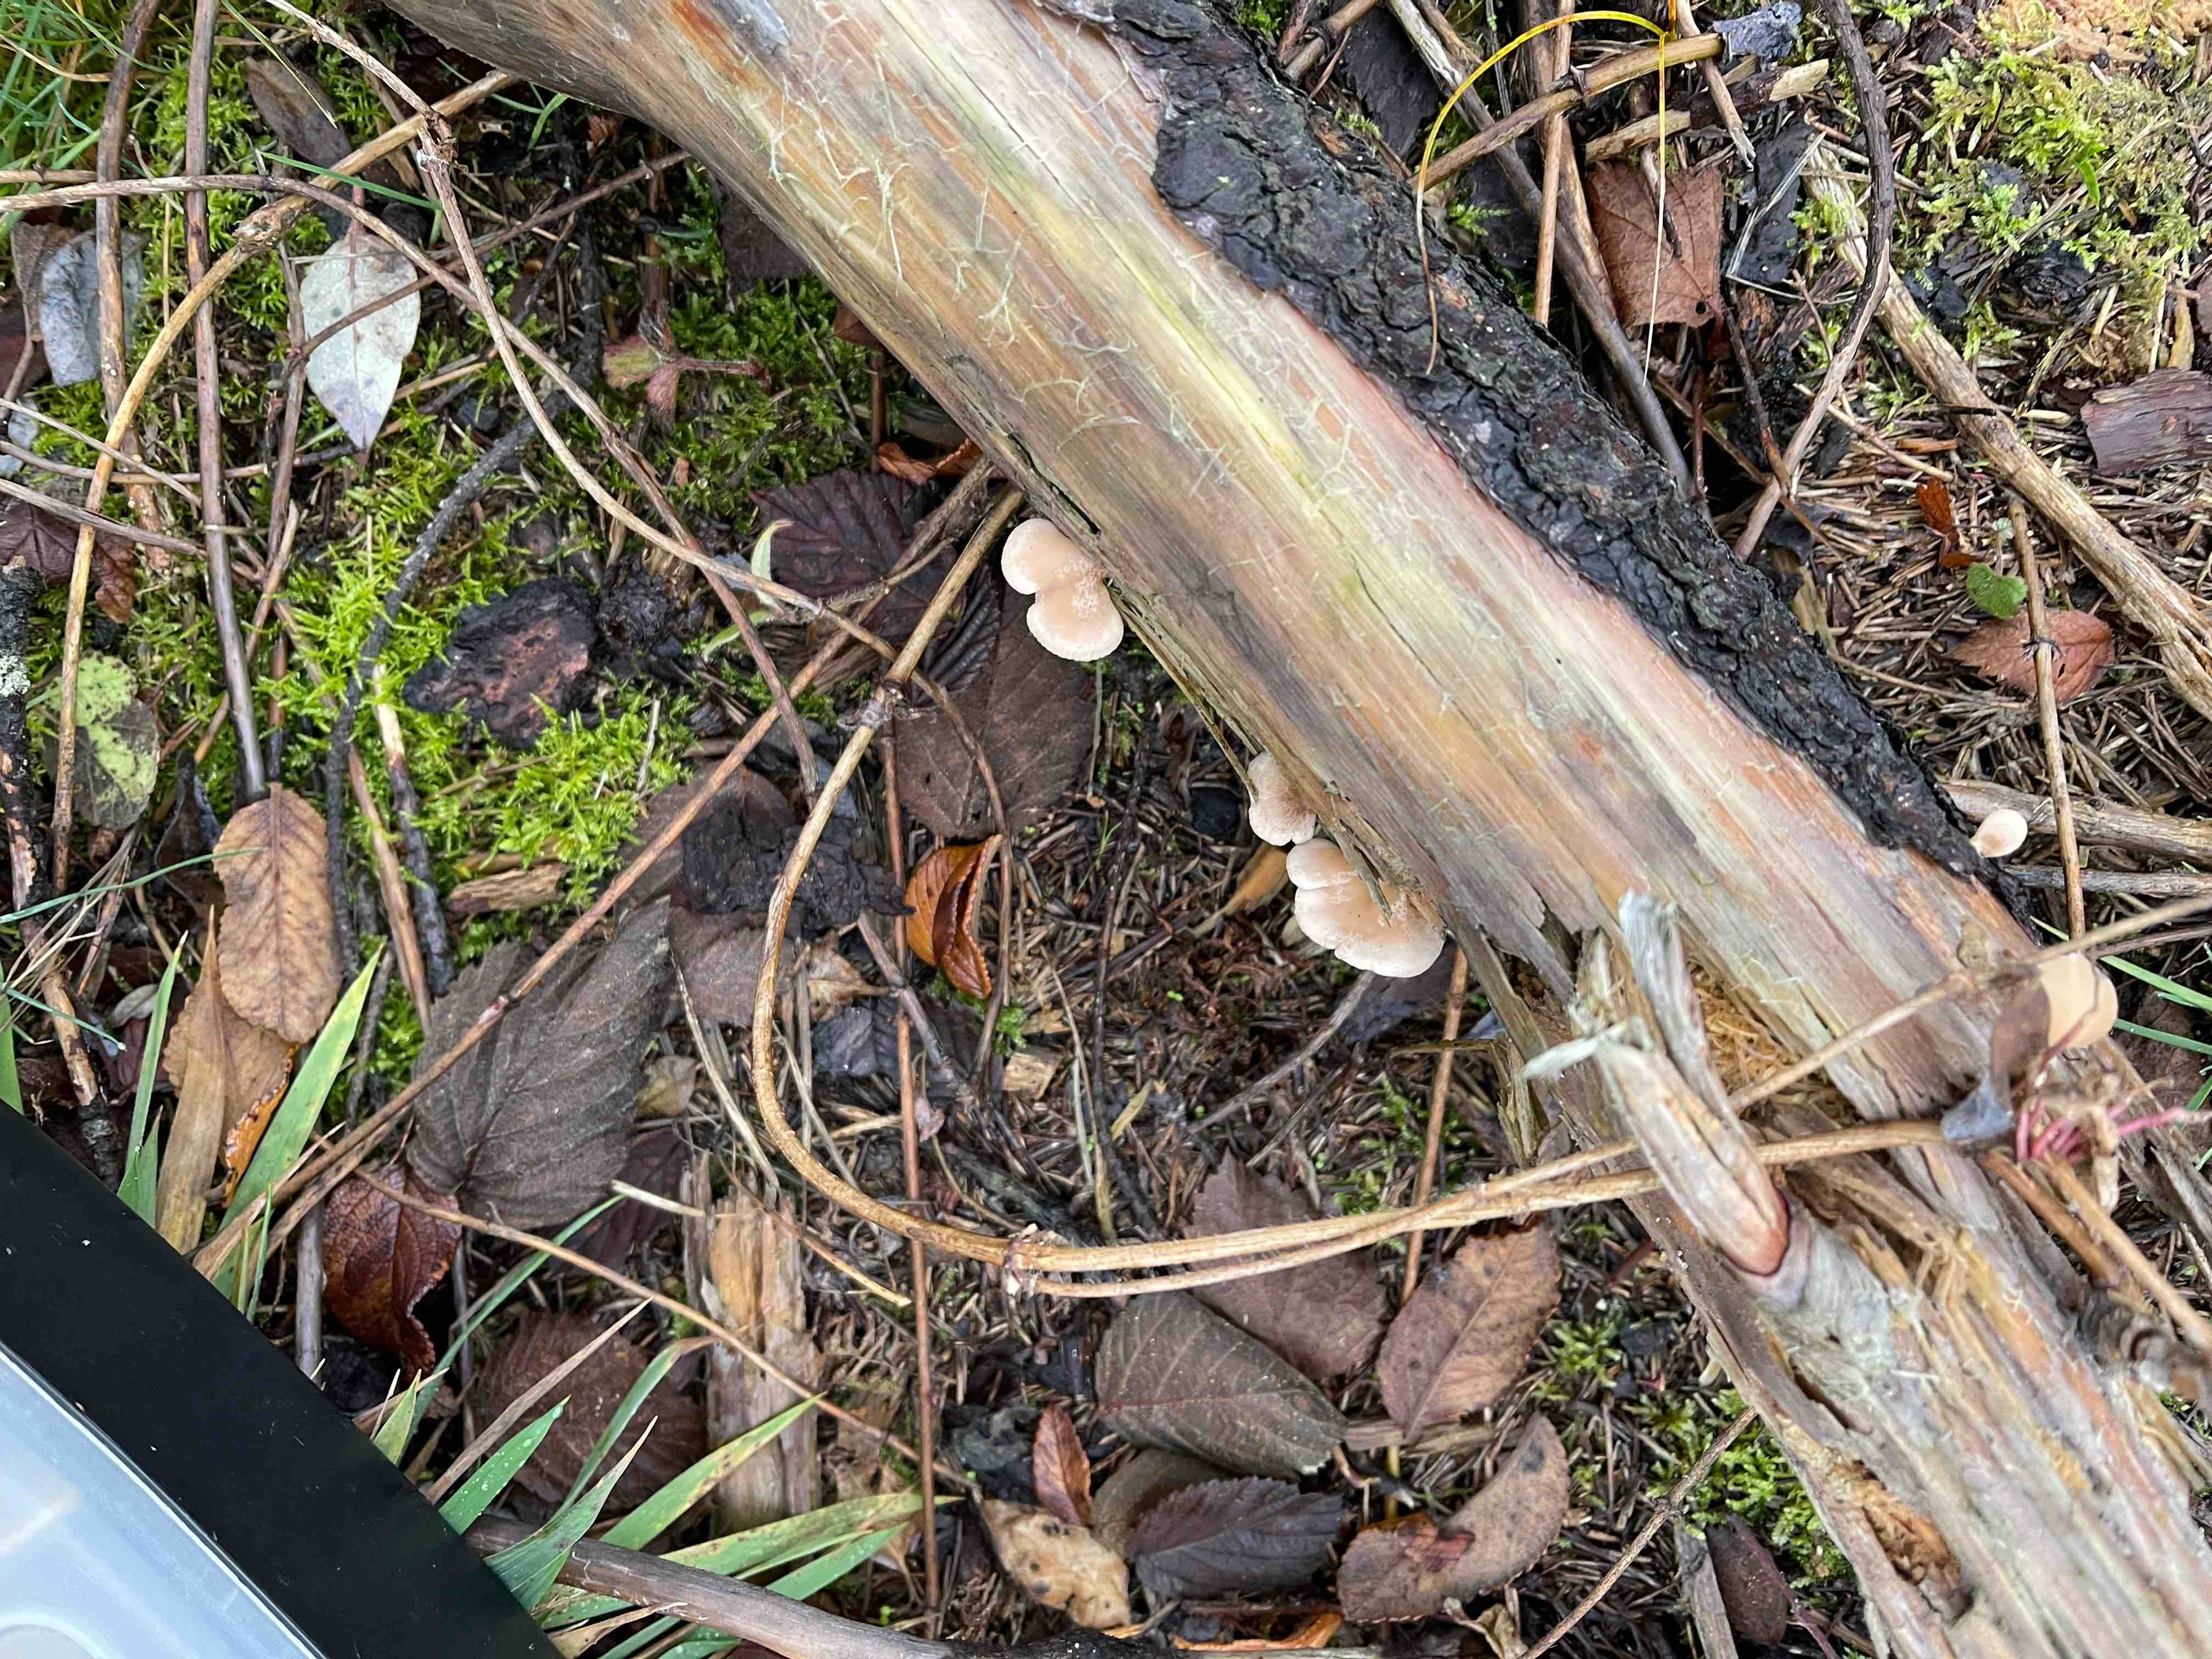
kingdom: Fungi
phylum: Basidiomycota
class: Agaricomycetes
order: Agaricales
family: Mycenaceae
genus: Panellus
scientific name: Panellus mitis
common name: mild epaulethat
